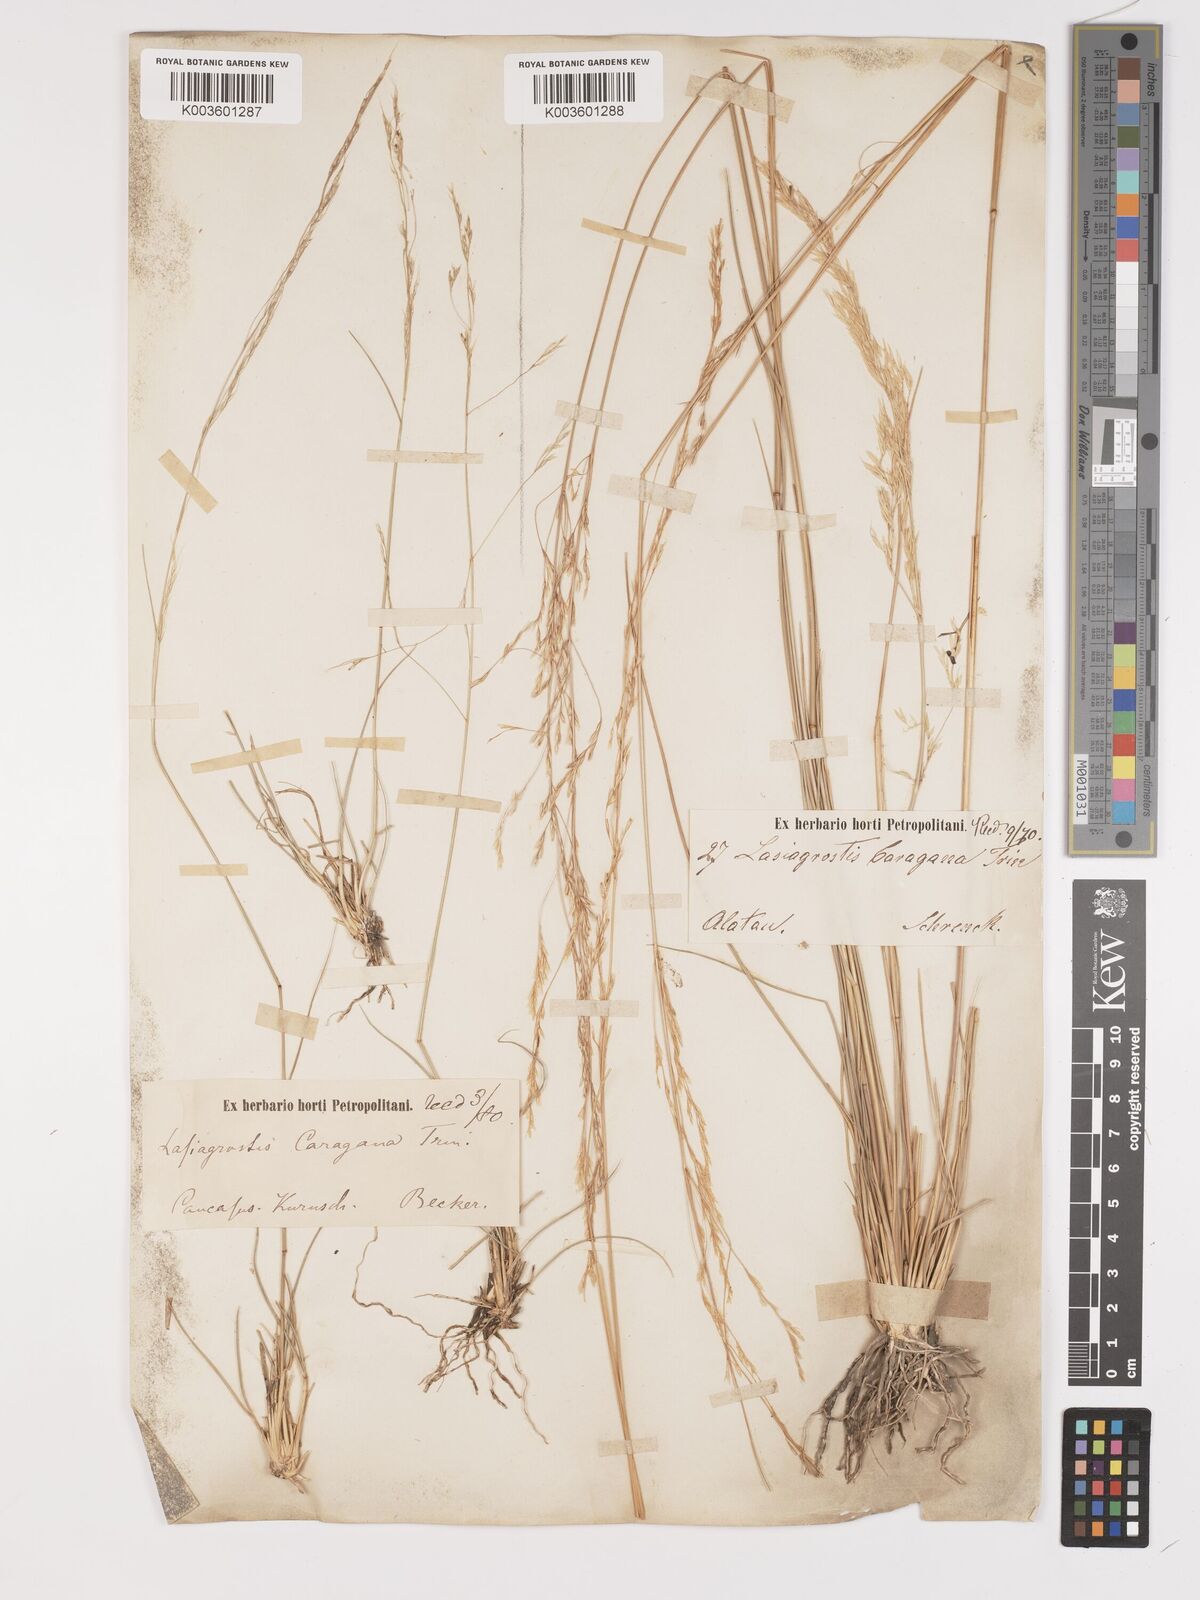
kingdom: Plantae
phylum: Tracheophyta
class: Liliopsida
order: Poales
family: Poaceae
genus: Stipa
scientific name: Stipa conferta
